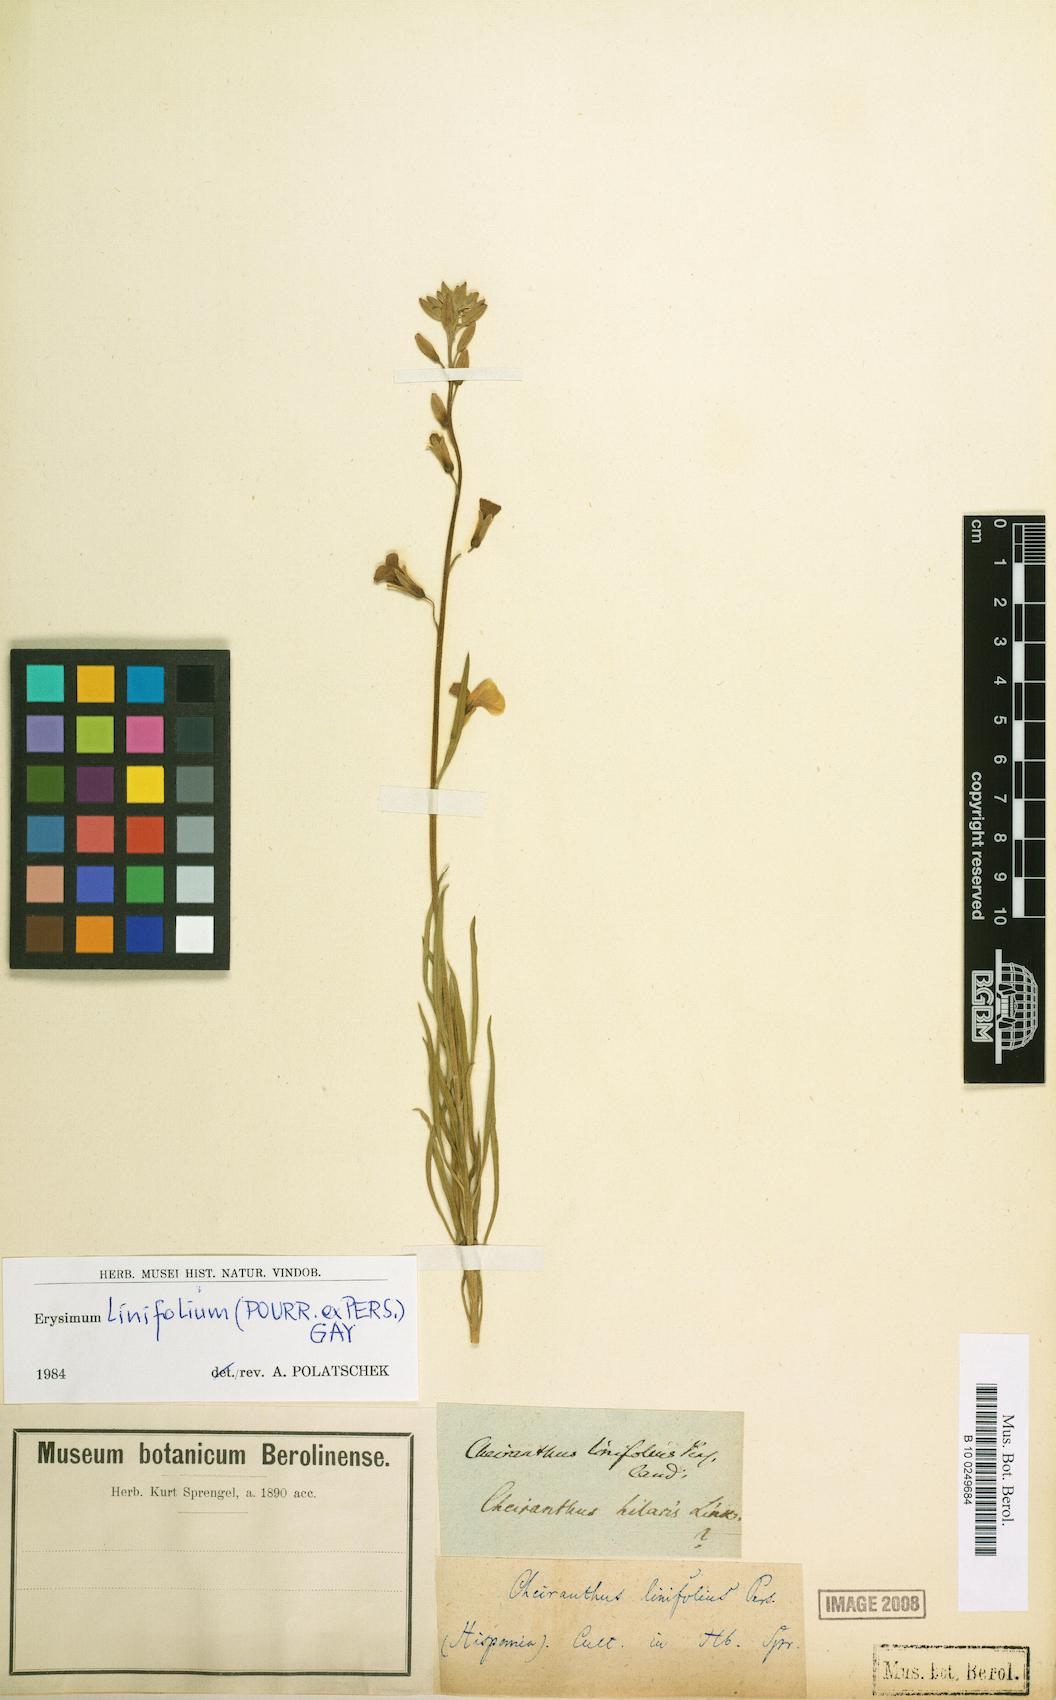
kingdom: Plantae
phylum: Tracheophyta
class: Magnoliopsida
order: Brassicales
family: Brassicaceae
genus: Erysimum
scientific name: Erysimum linifolium
